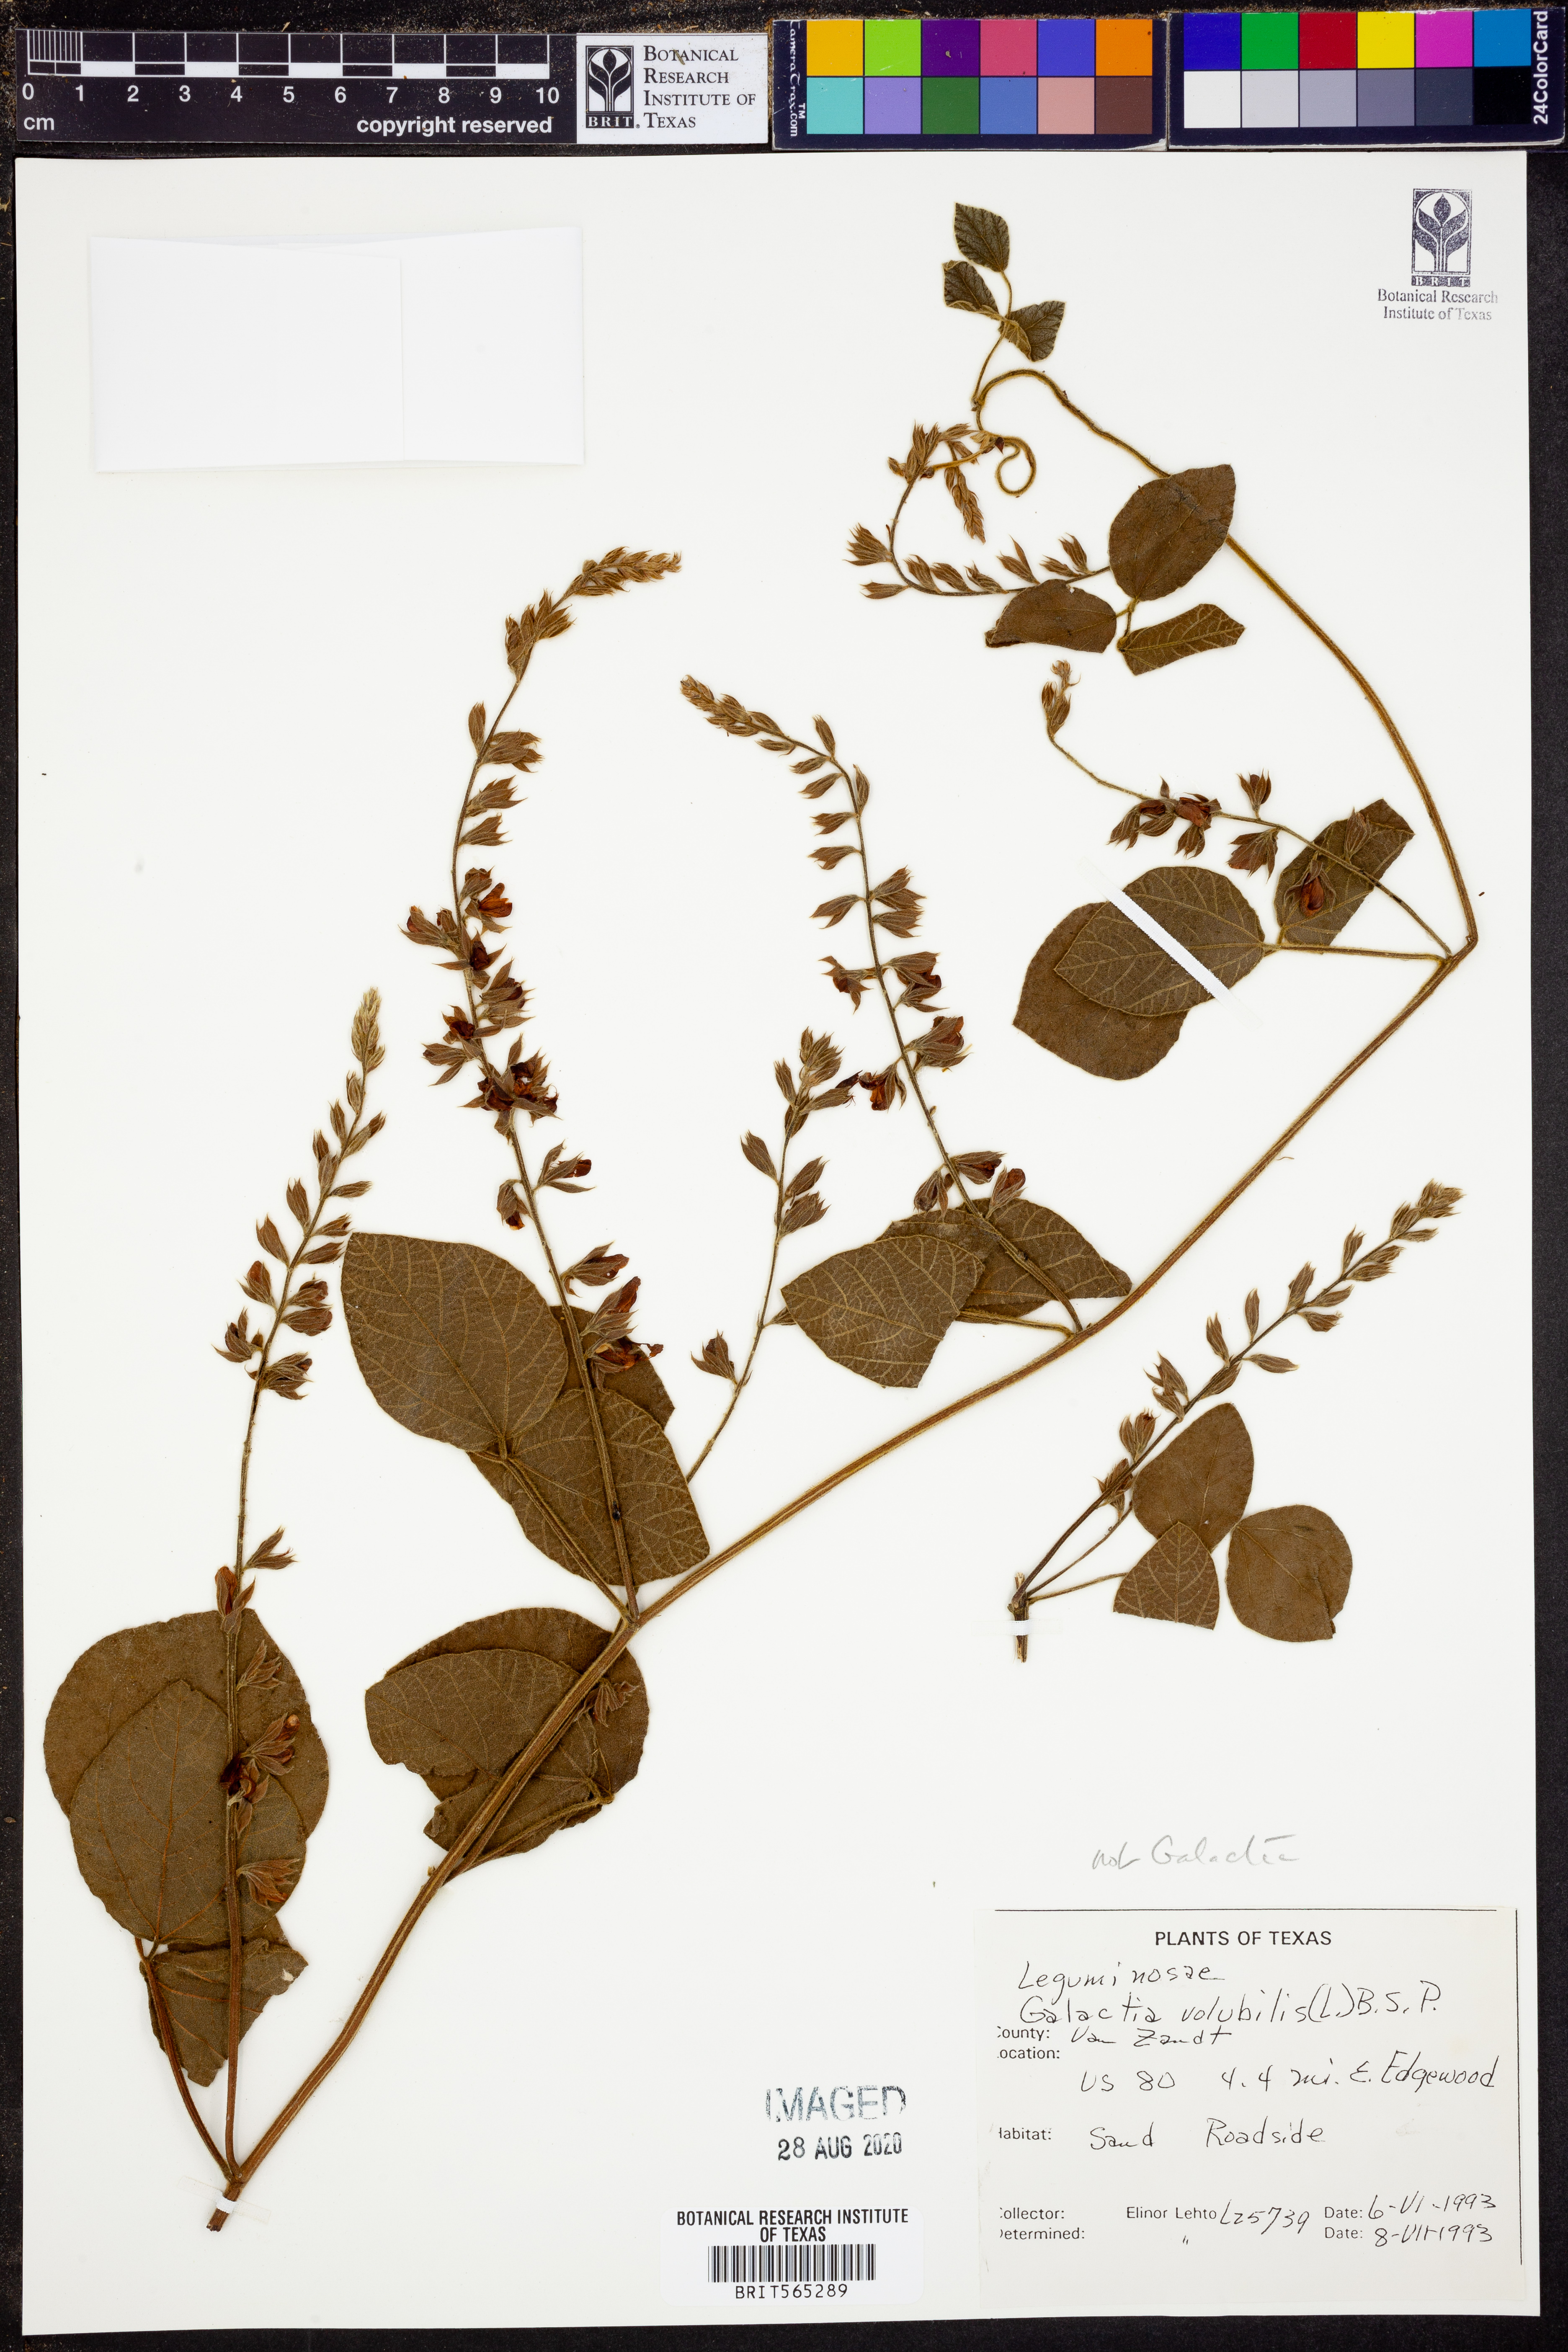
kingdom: Plantae
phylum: Tracheophyta
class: Magnoliopsida
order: Fabales
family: Fabaceae
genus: Galactia
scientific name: Galactia volubilis
